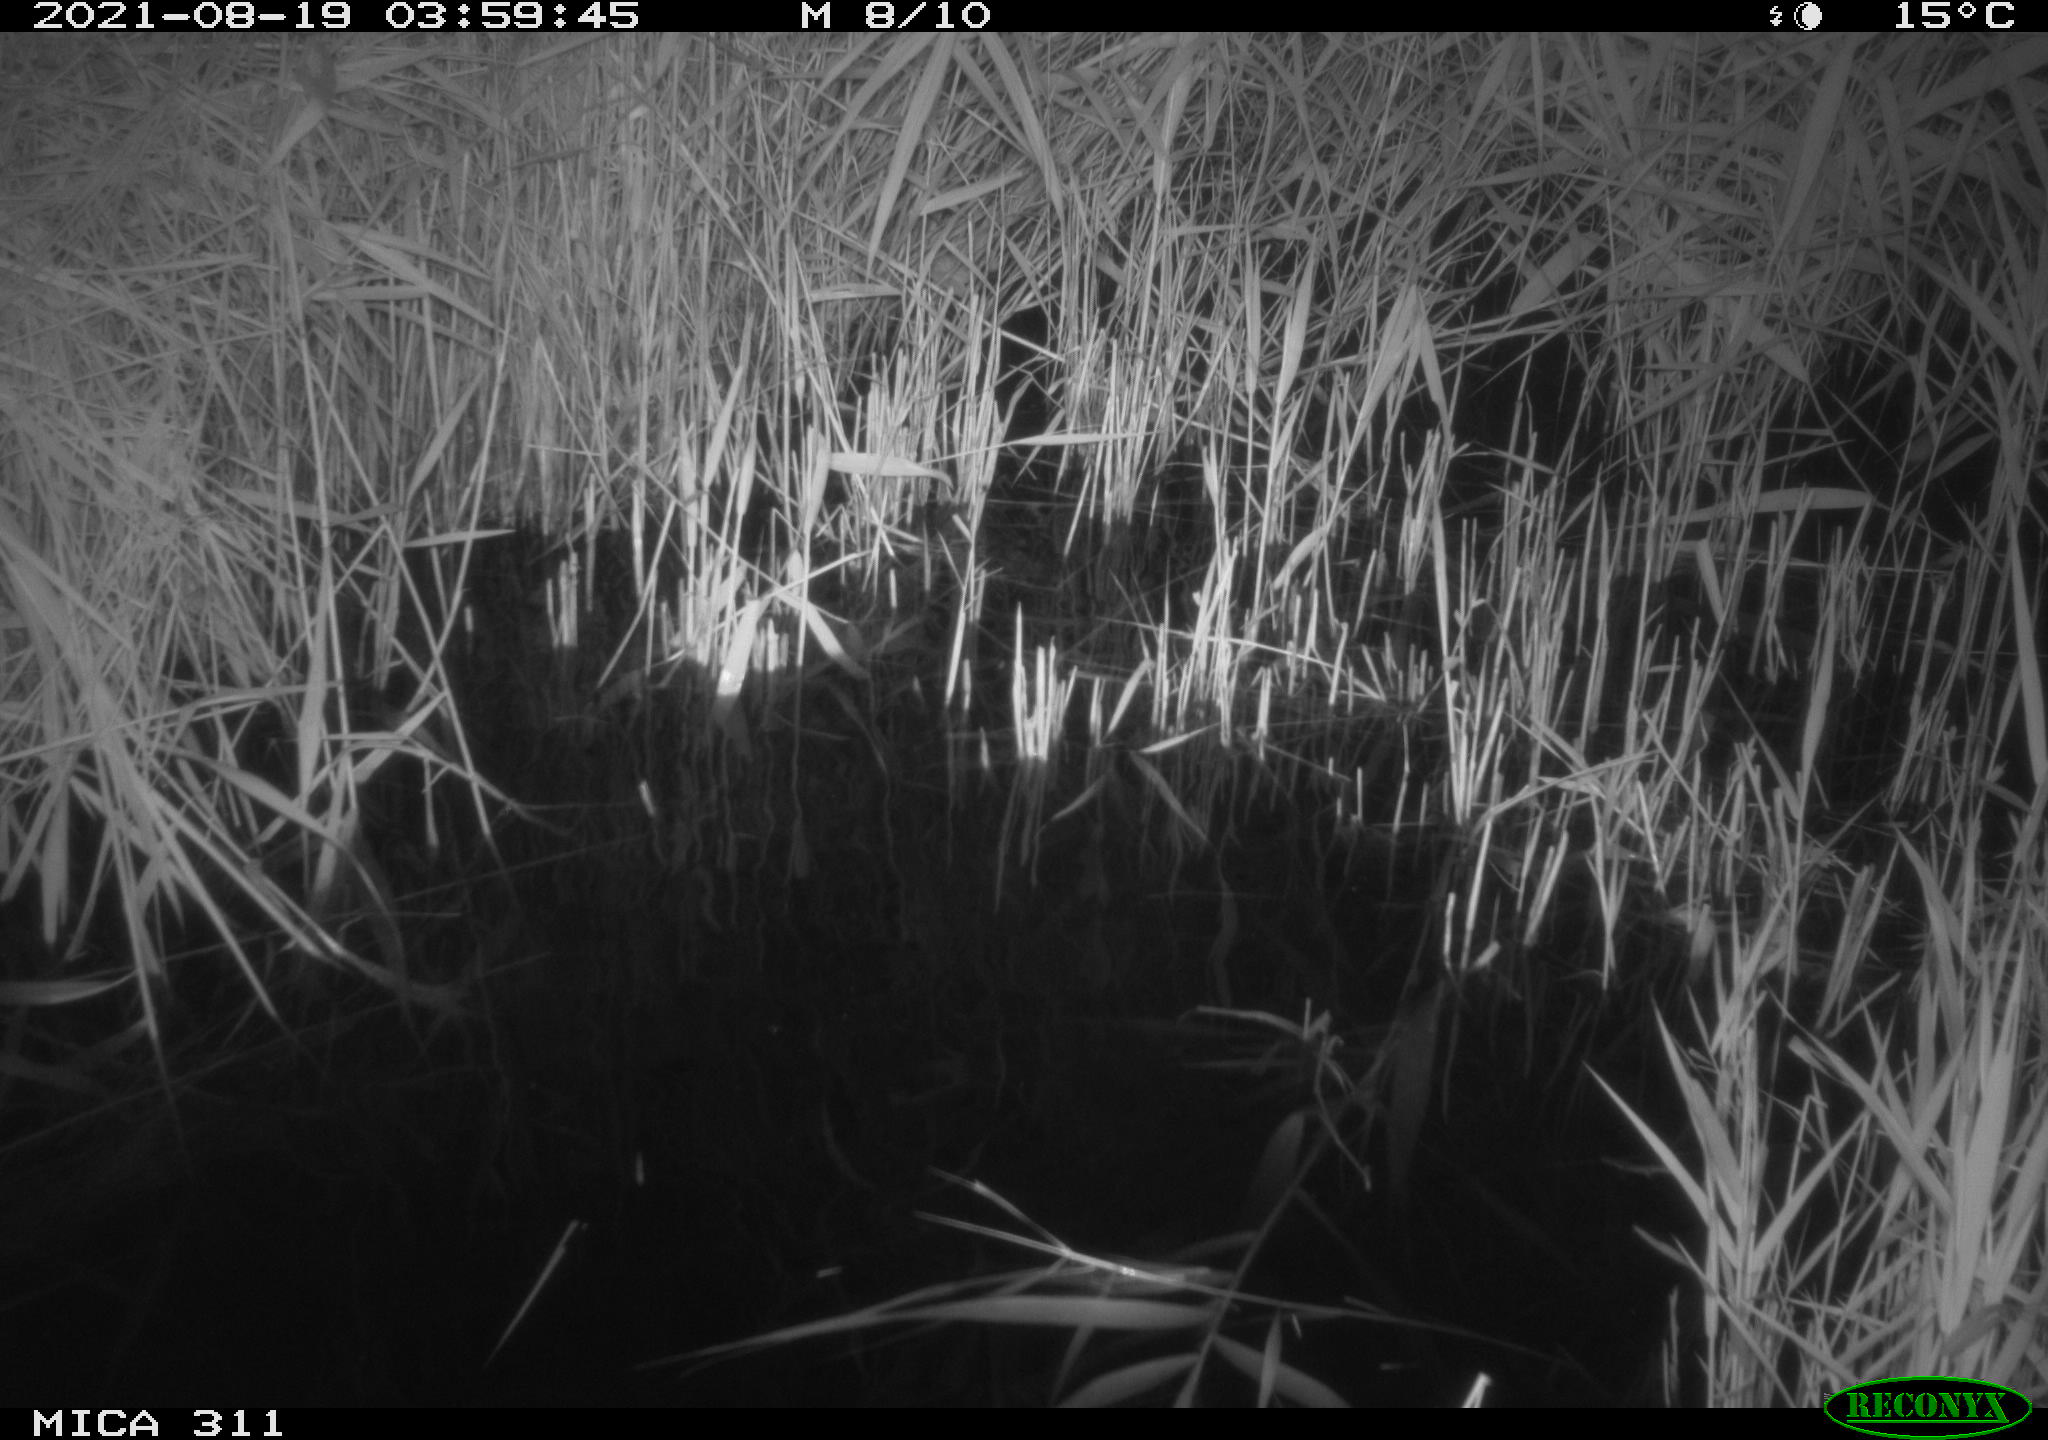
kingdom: Animalia
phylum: Chordata
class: Mammalia
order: Rodentia
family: Muridae
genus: Rattus
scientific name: Rattus norvegicus
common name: Brown rat
